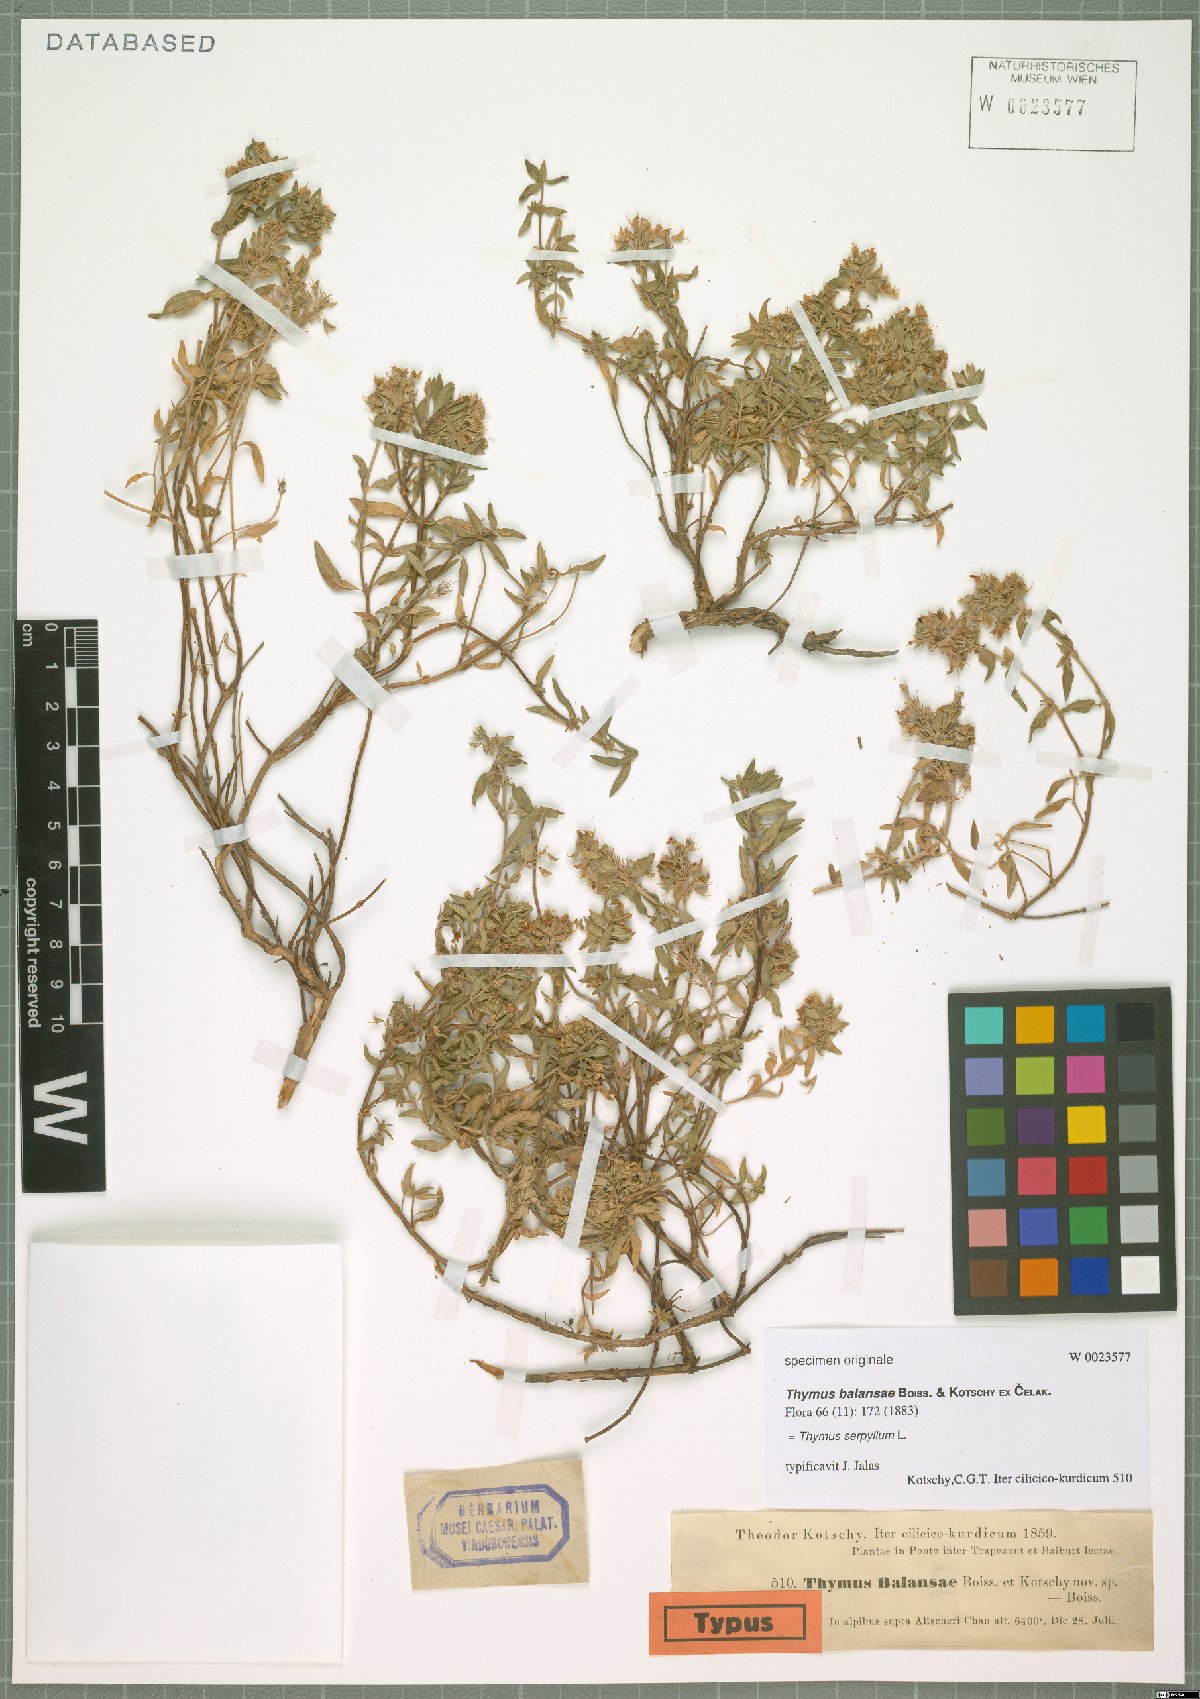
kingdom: Plantae
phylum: Tracheophyta
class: Magnoliopsida
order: Lamiales
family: Lamiaceae
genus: Thymus
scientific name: Thymus serpyllum
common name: Breckland thyme
